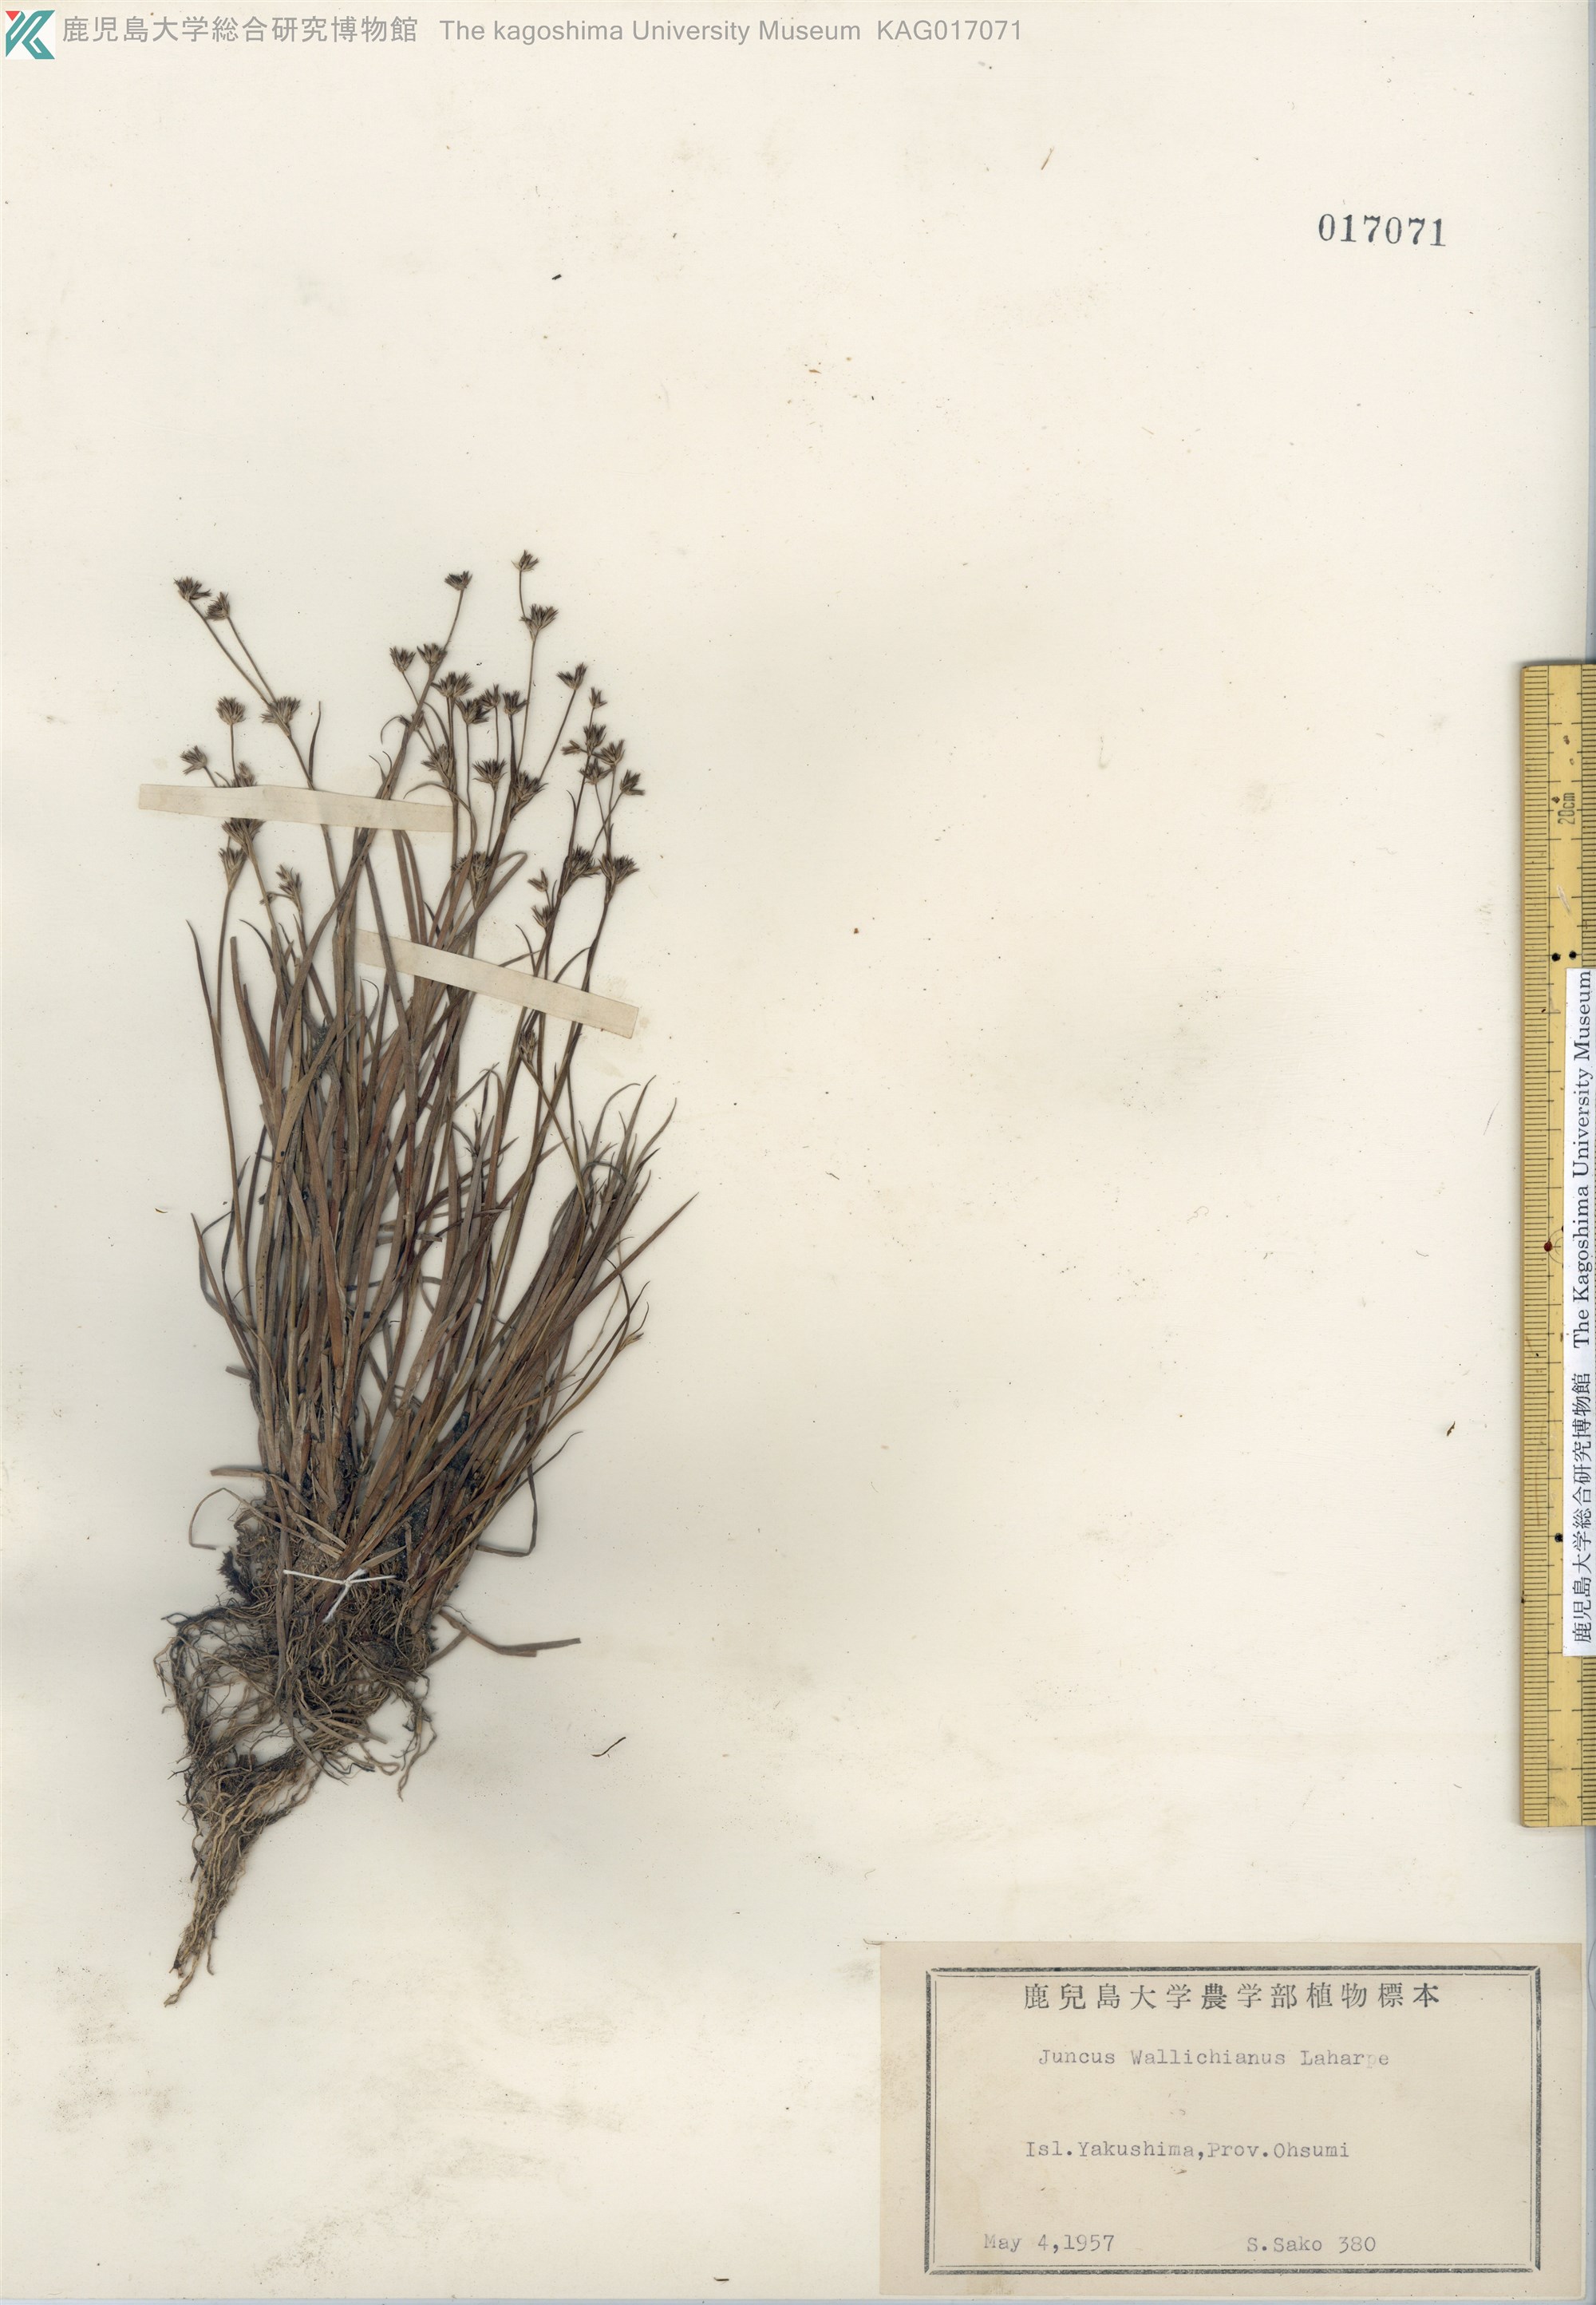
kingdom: Plantae
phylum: Tracheophyta
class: Liliopsida
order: Poales
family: Juncaceae
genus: Juncus
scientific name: Juncus prismatocarpus
